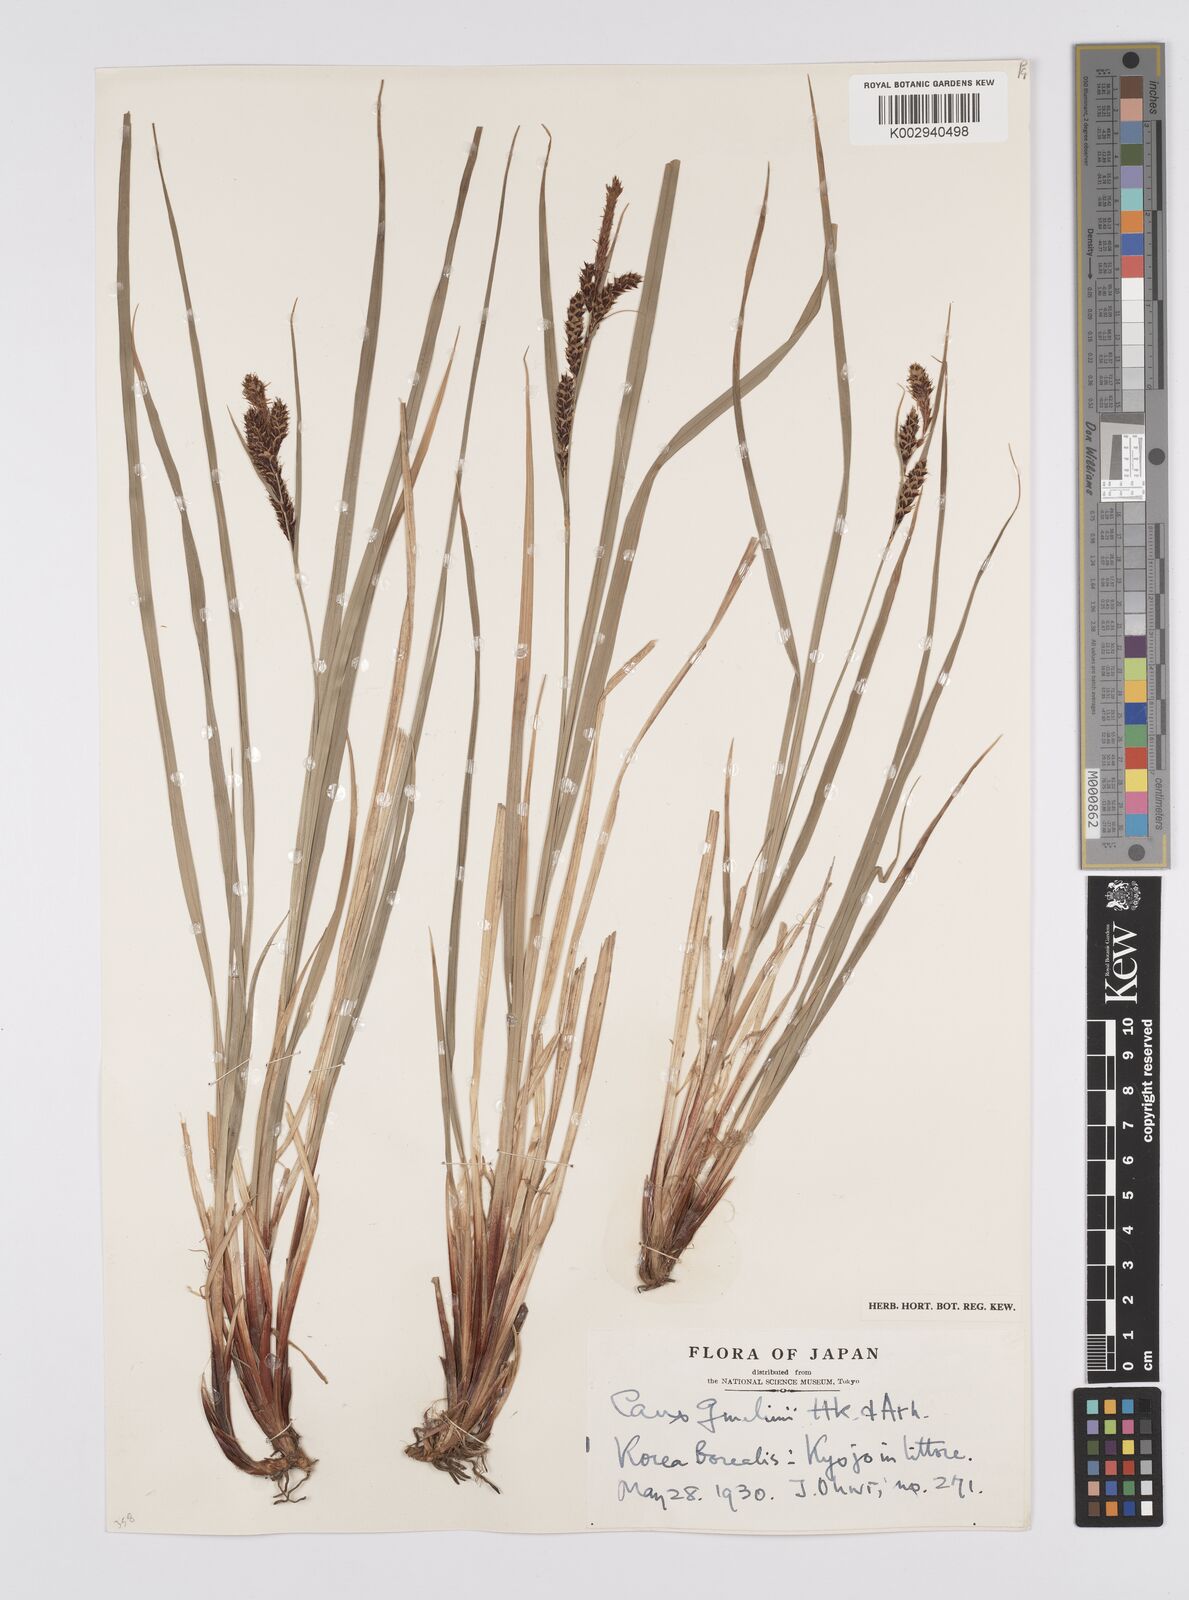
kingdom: Plantae
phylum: Tracheophyta
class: Liliopsida
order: Poales
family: Cyperaceae
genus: Carex
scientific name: Carex gmelinii
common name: Gmelin's sedge
